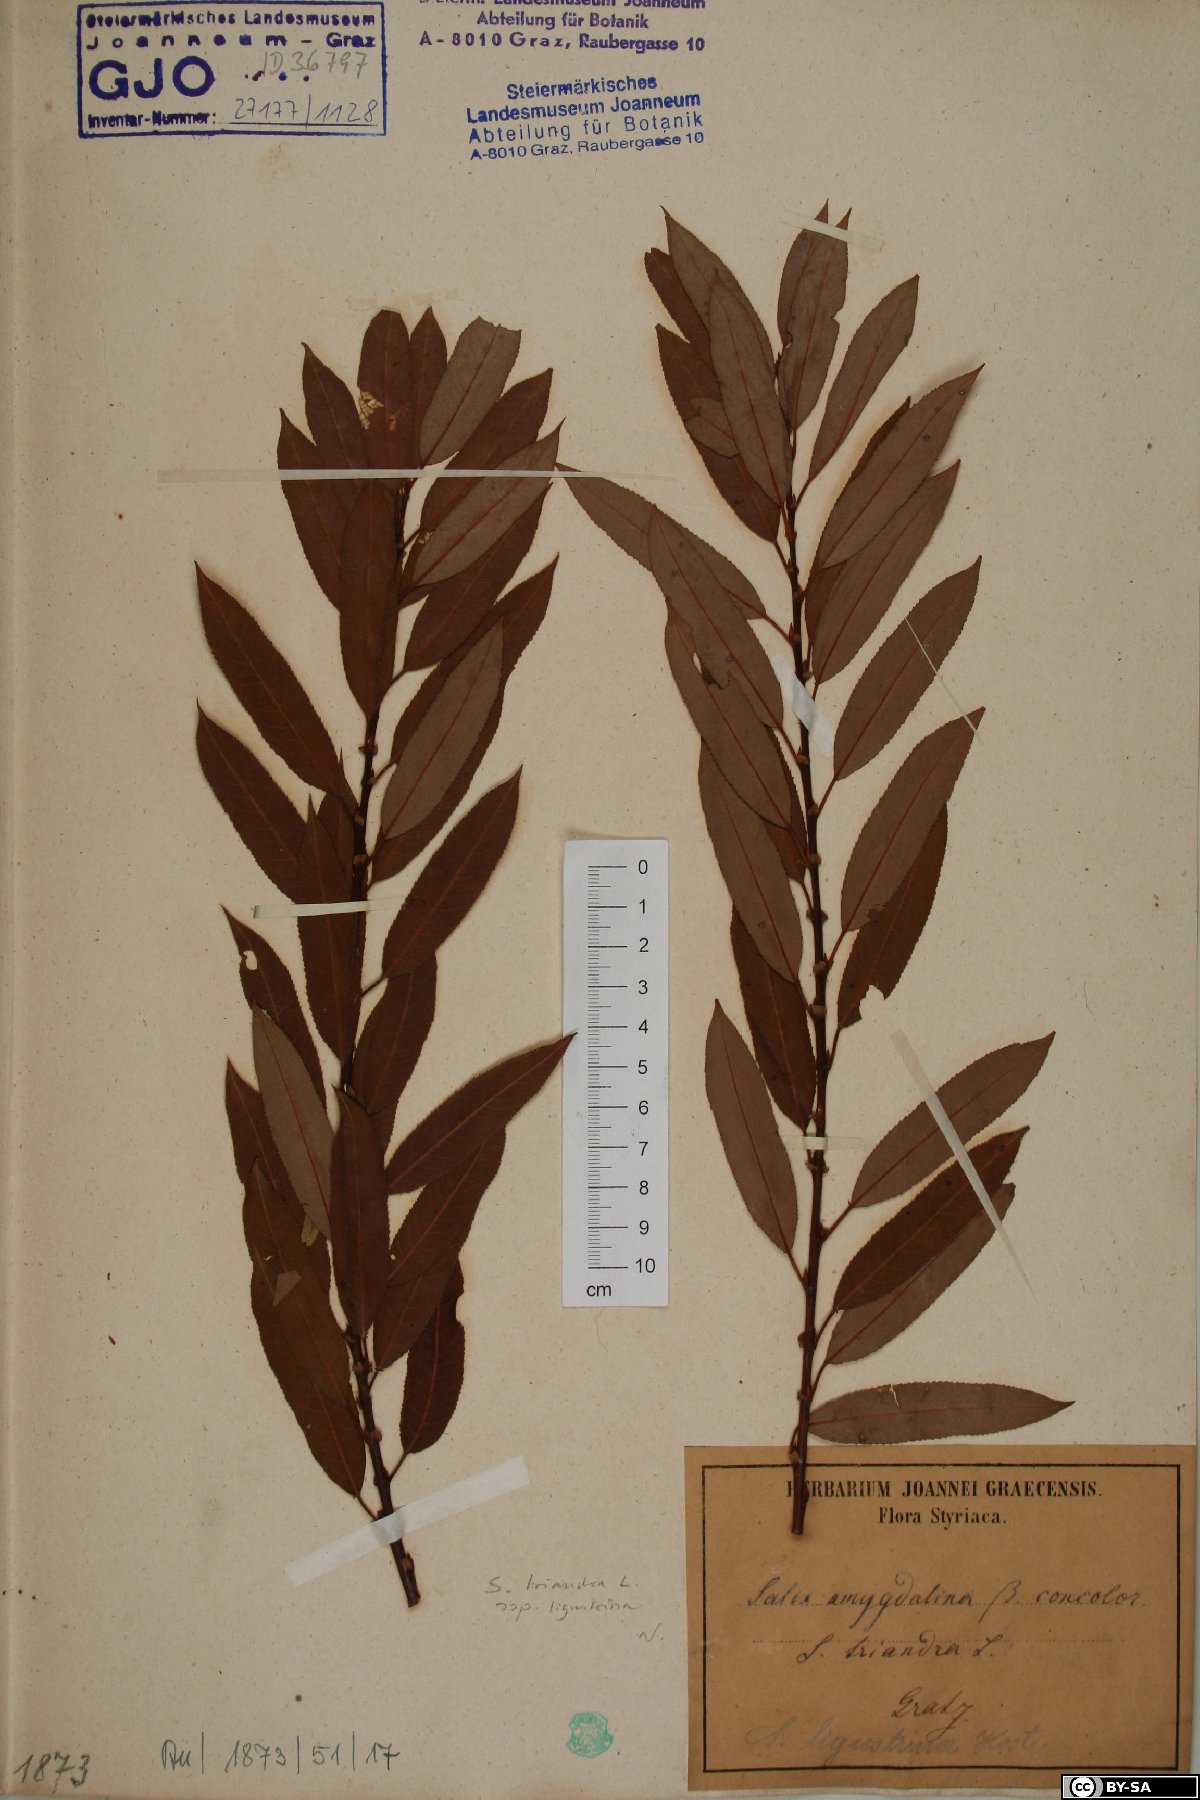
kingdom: Plantae
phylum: Tracheophyta
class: Magnoliopsida
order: Malpighiales
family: Salicaceae
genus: Salix
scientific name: Salix triandra
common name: Almond willow
